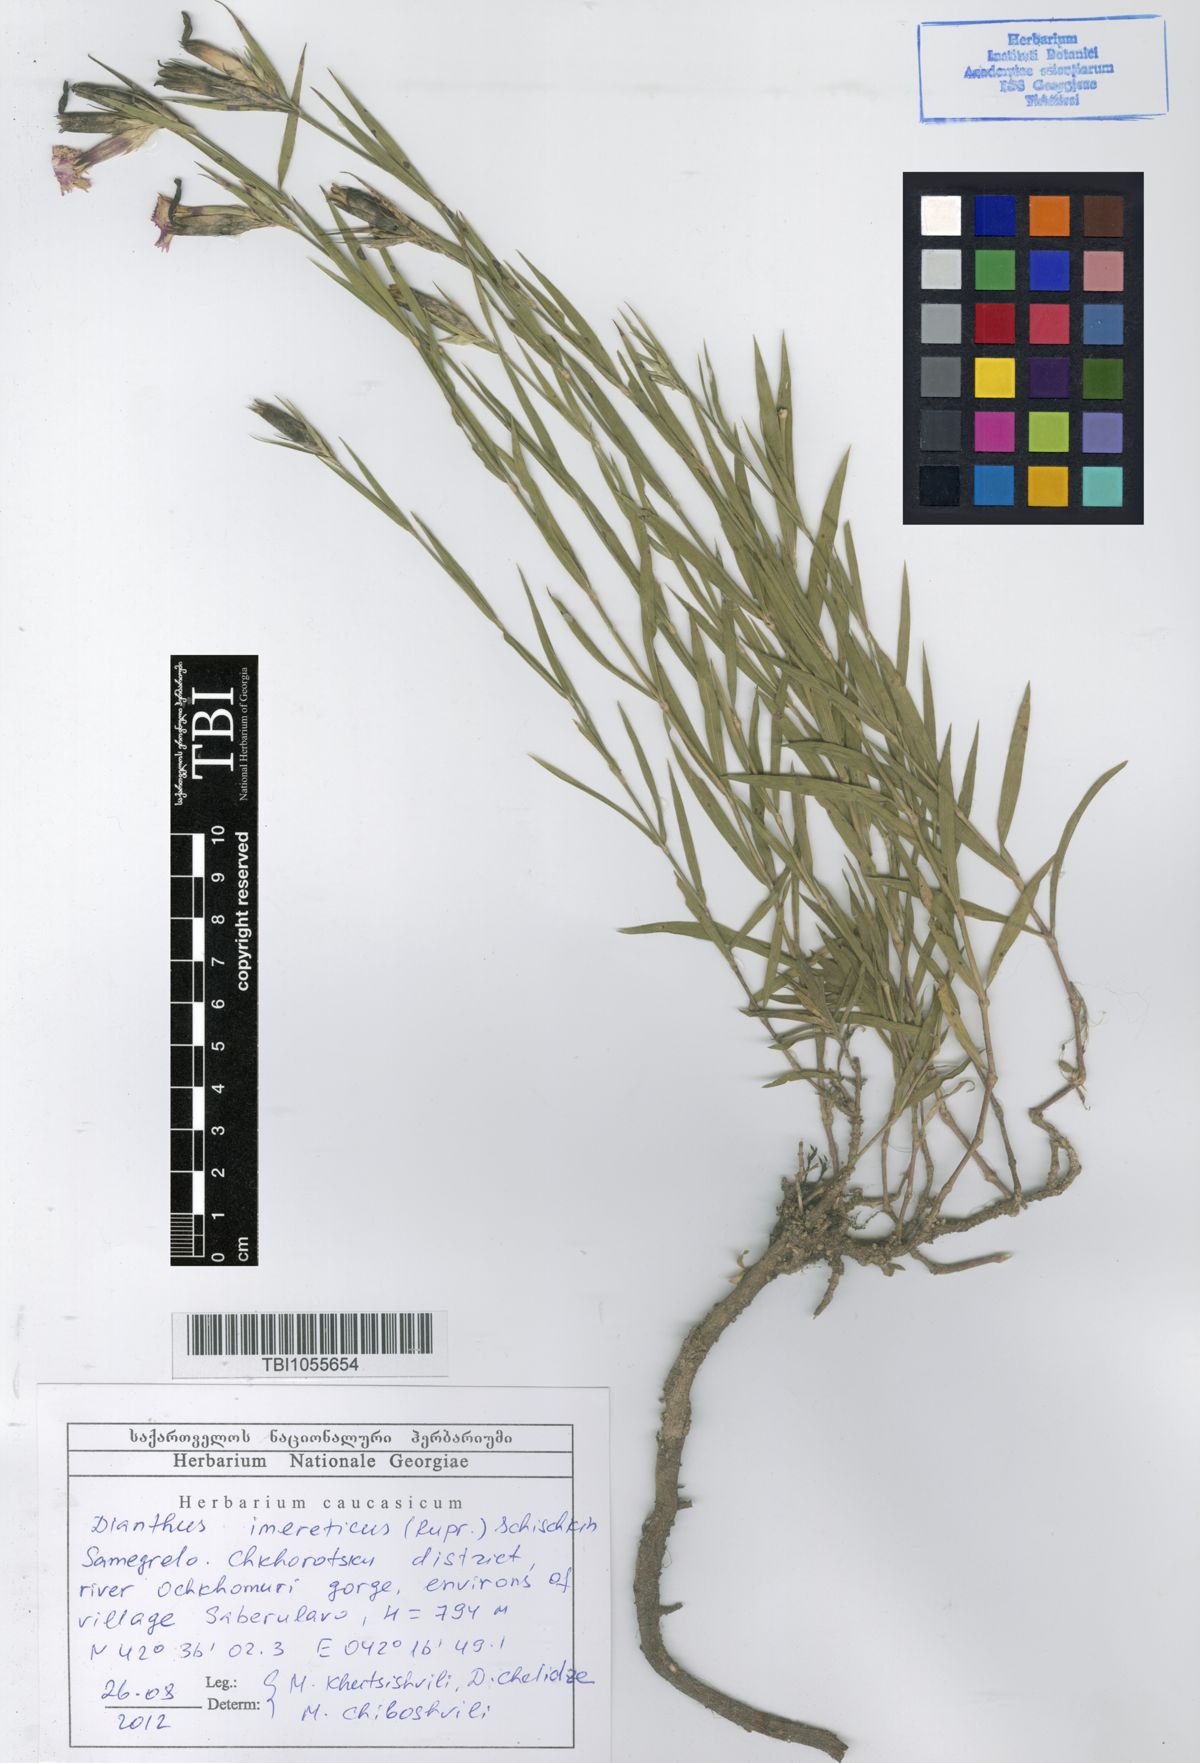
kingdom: Plantae
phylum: Tracheophyta
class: Magnoliopsida
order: Caryophyllales
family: Caryophyllaceae
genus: Dianthus
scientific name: Dianthus imereticus
